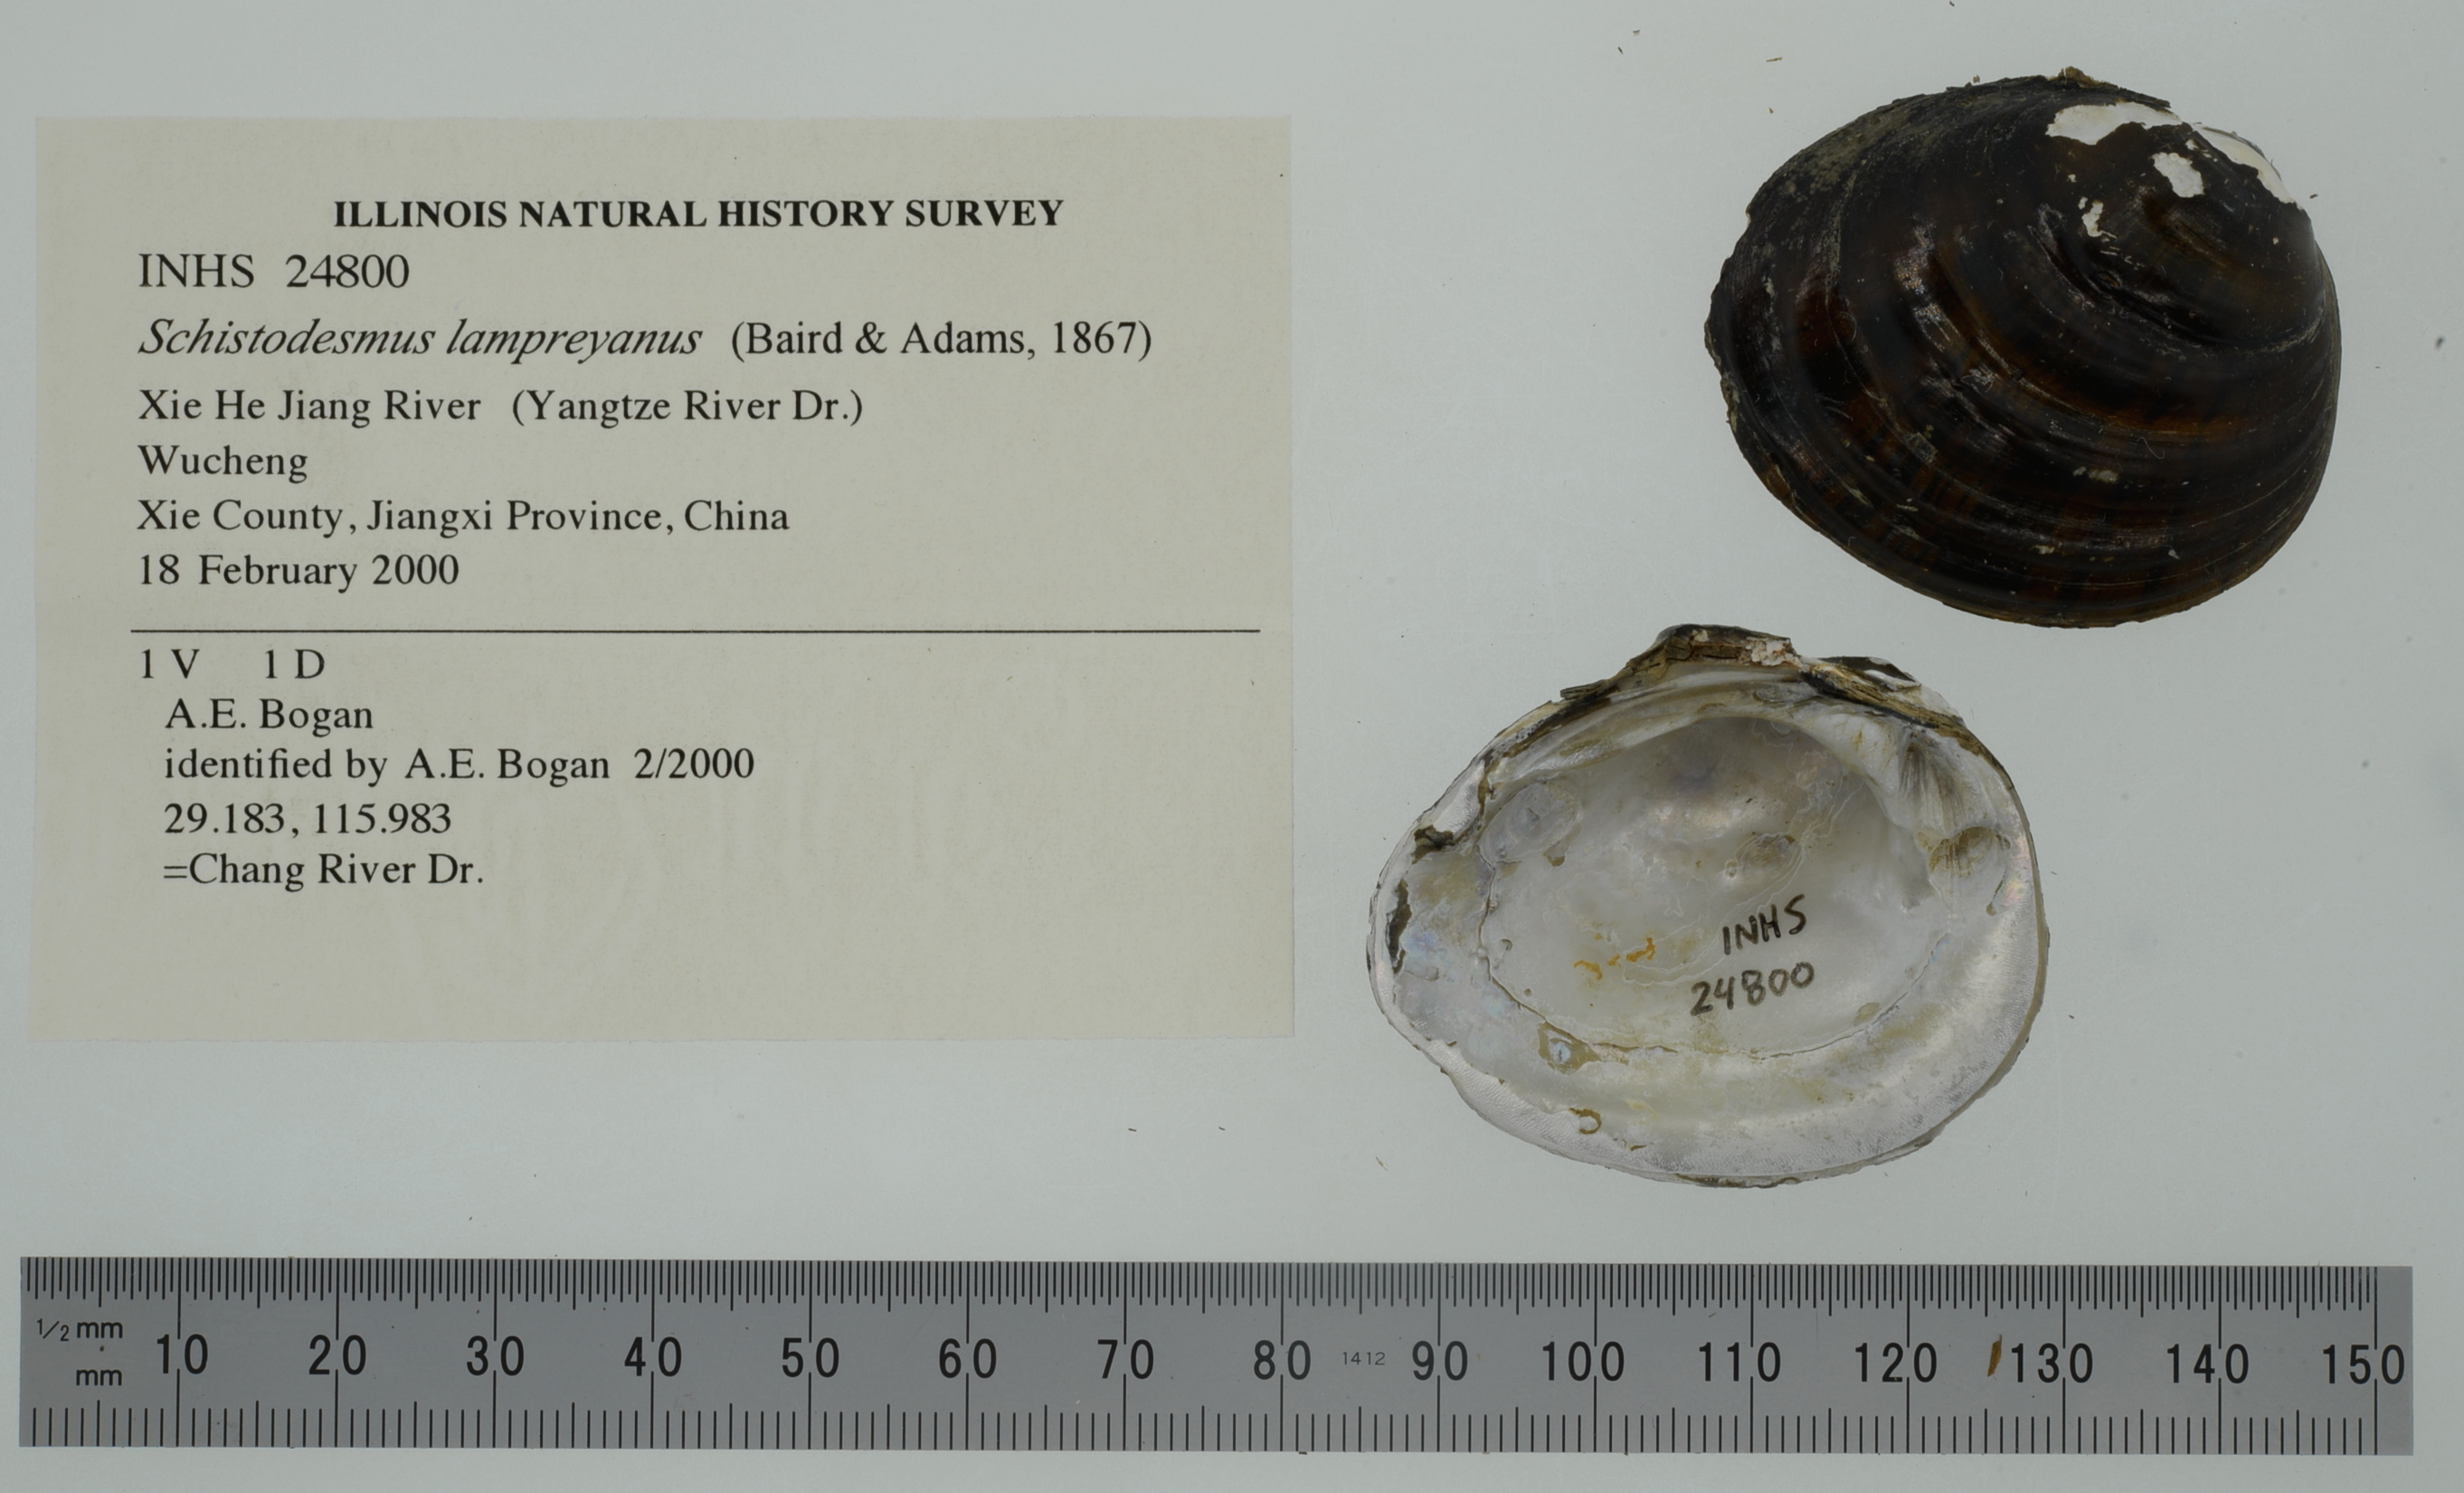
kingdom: Animalia
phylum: Mollusca
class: Bivalvia
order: Unionida
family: Unionidae
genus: Anodonta
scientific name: Anodonta cygnea
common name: Swan mussel
